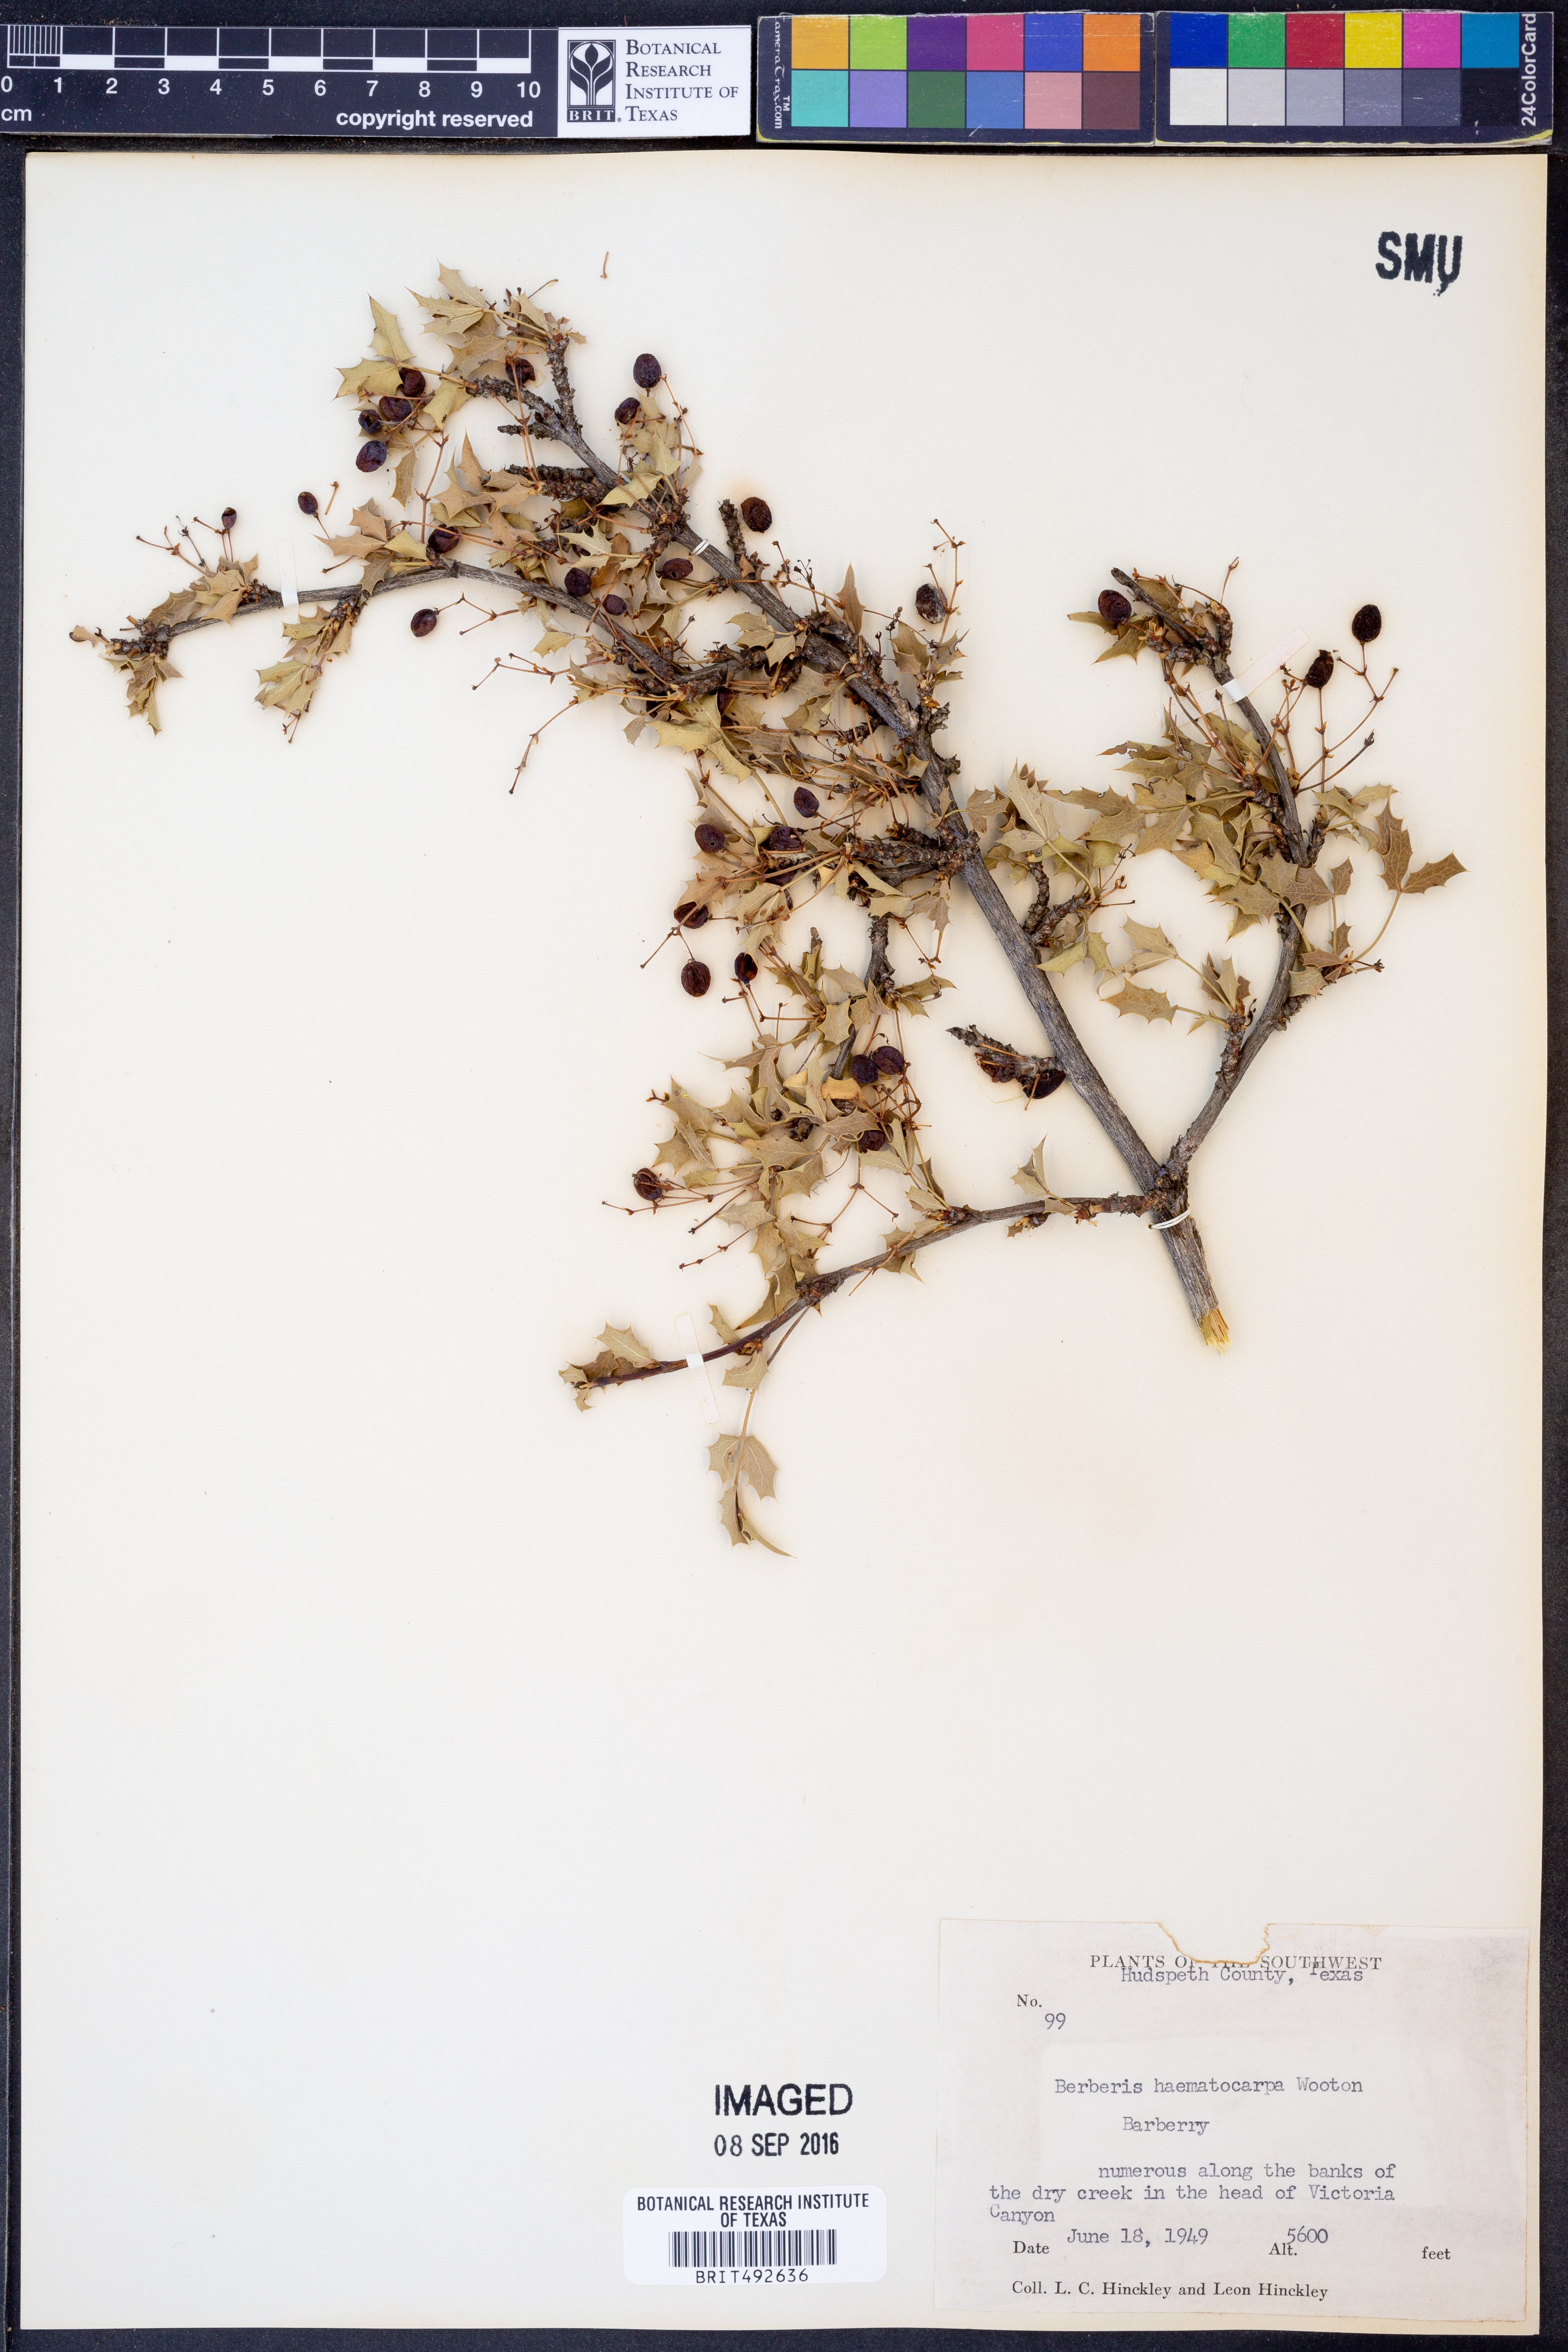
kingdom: Plantae
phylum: Tracheophyta
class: Magnoliopsida
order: Ranunculales
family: Berberidaceae
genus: Alloberberis
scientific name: Alloberberis haematocarpa
